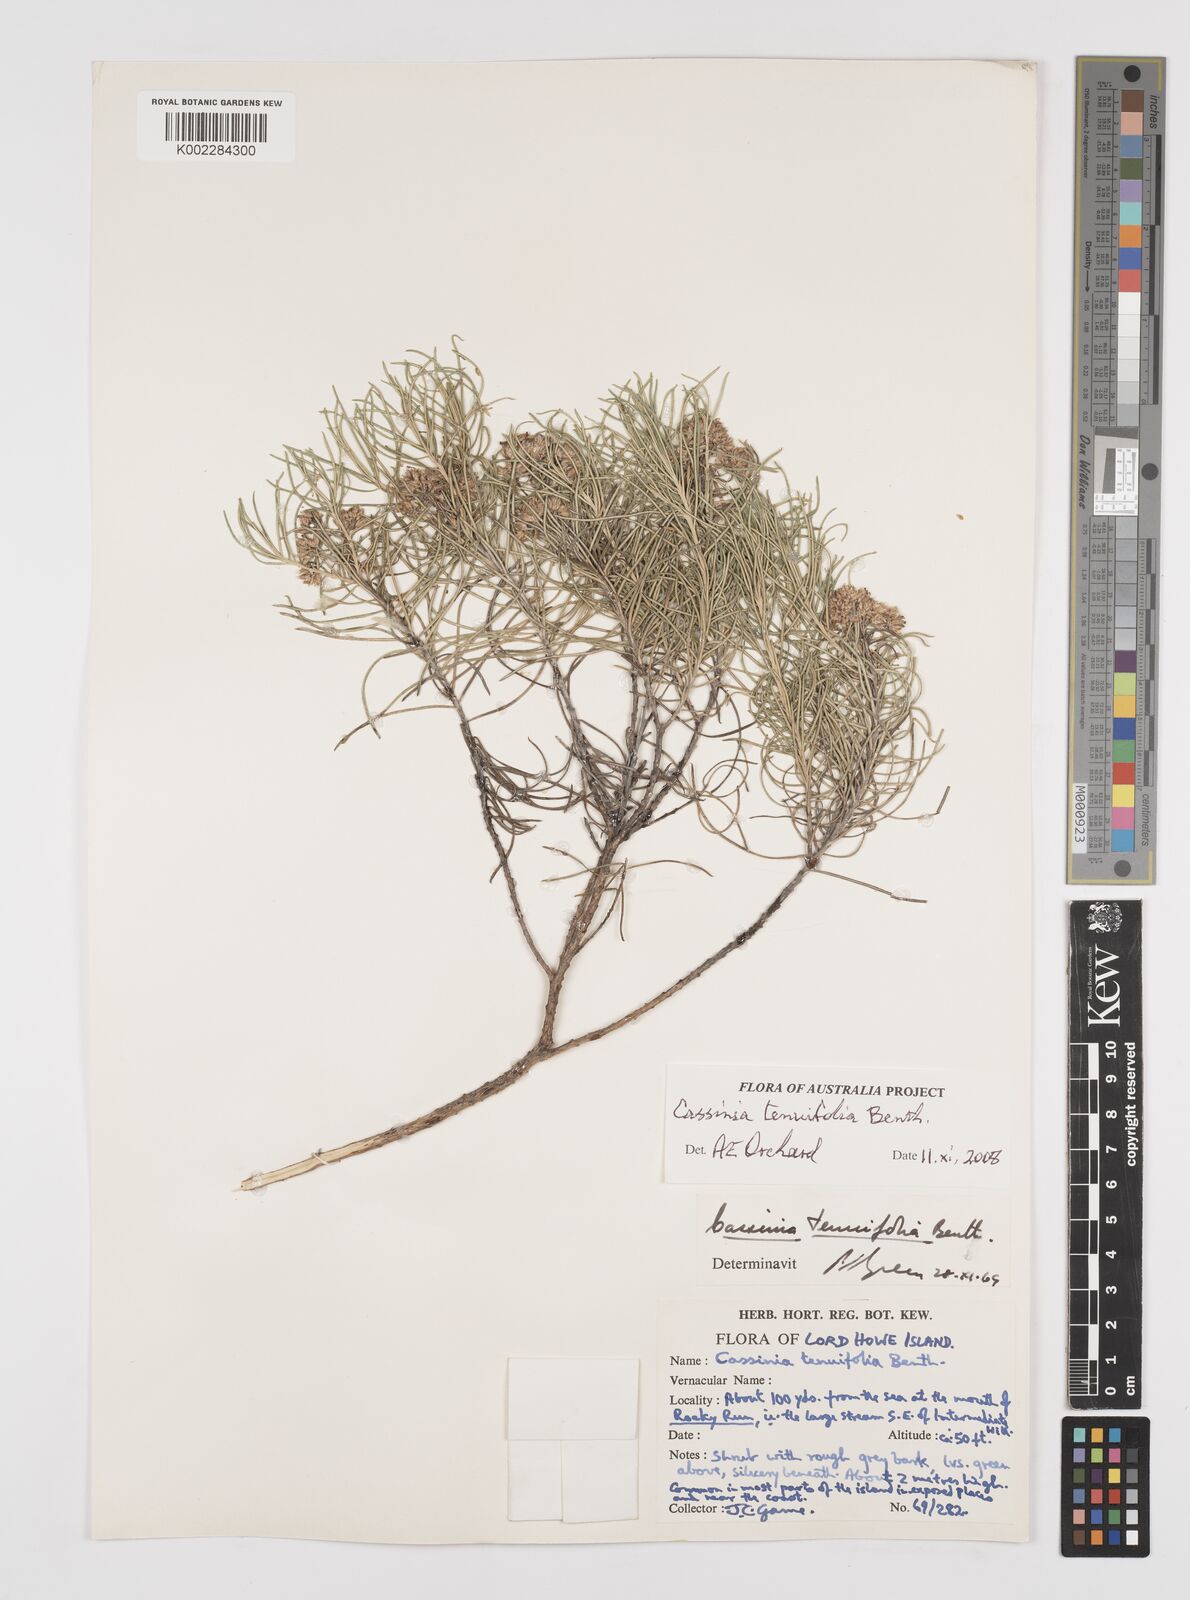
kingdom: Plantae
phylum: Tracheophyta
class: Magnoliopsida
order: Asterales
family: Asteraceae
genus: Cassinia
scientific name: Cassinia tenuifolia
